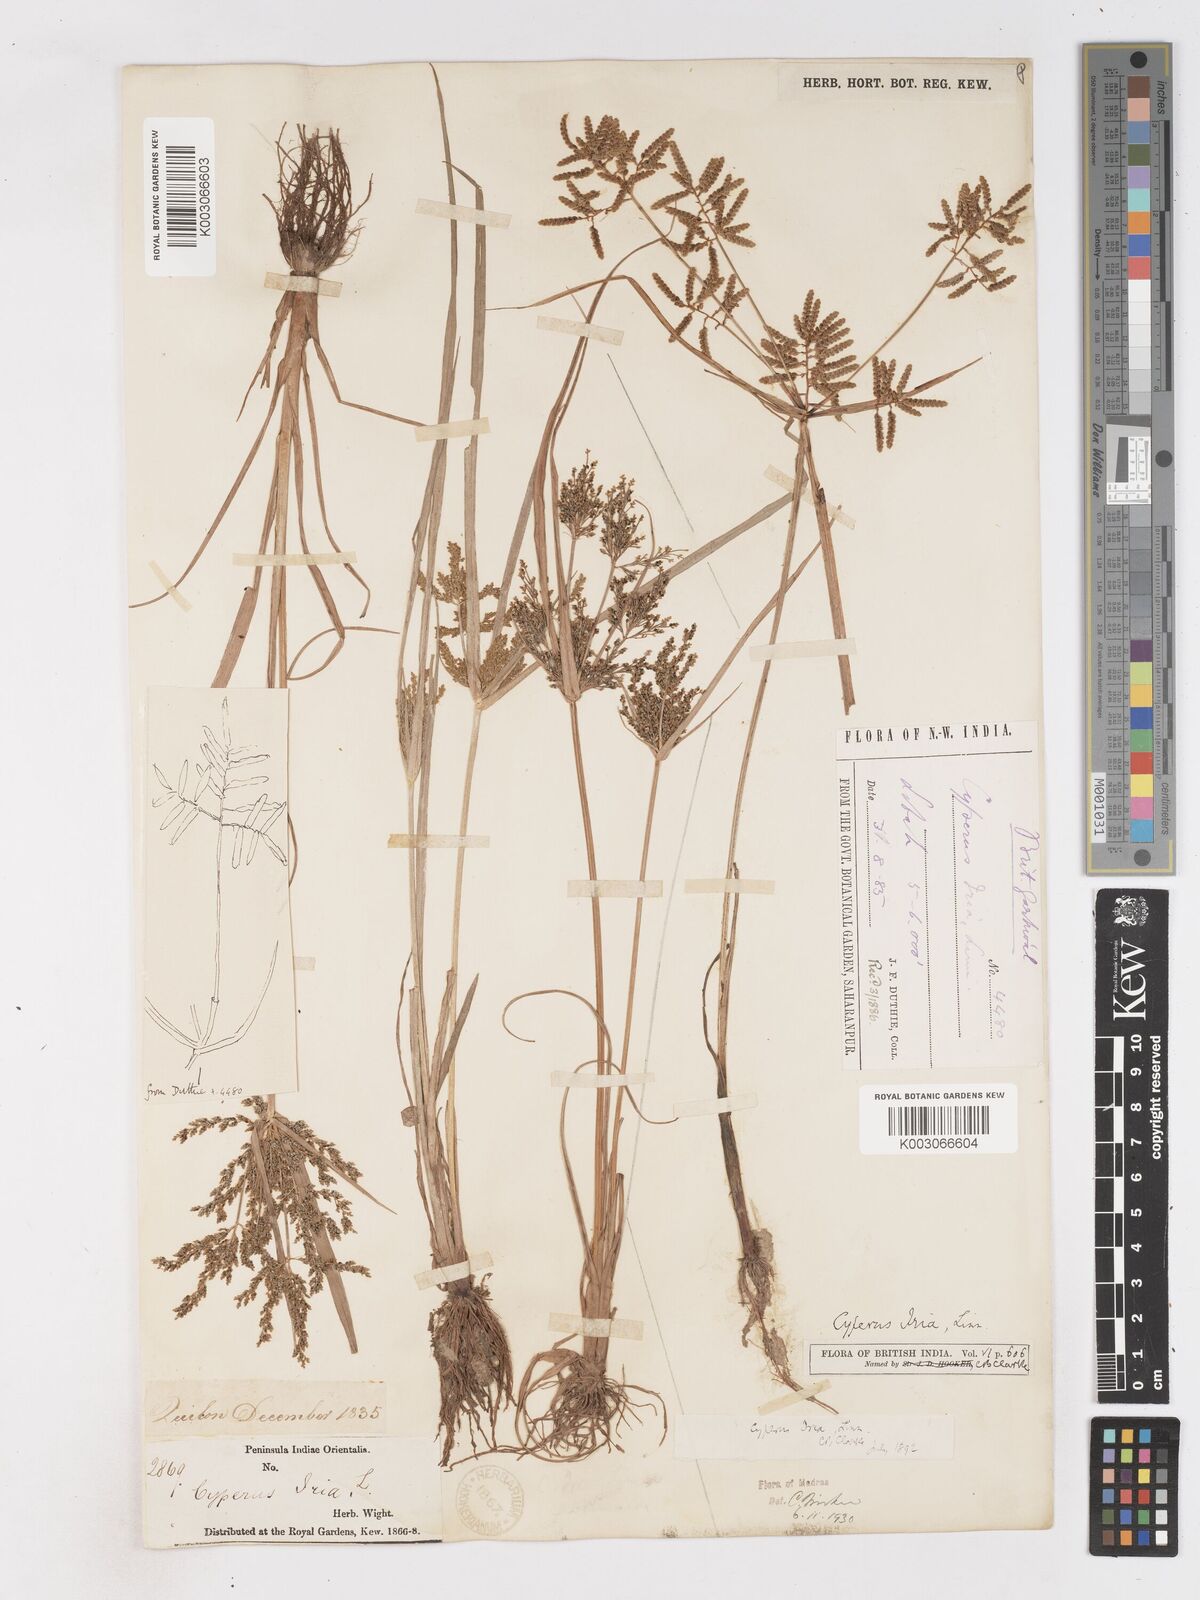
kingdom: Plantae
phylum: Tracheophyta
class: Liliopsida
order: Poales
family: Cyperaceae
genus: Cyperus
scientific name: Cyperus alulatus
